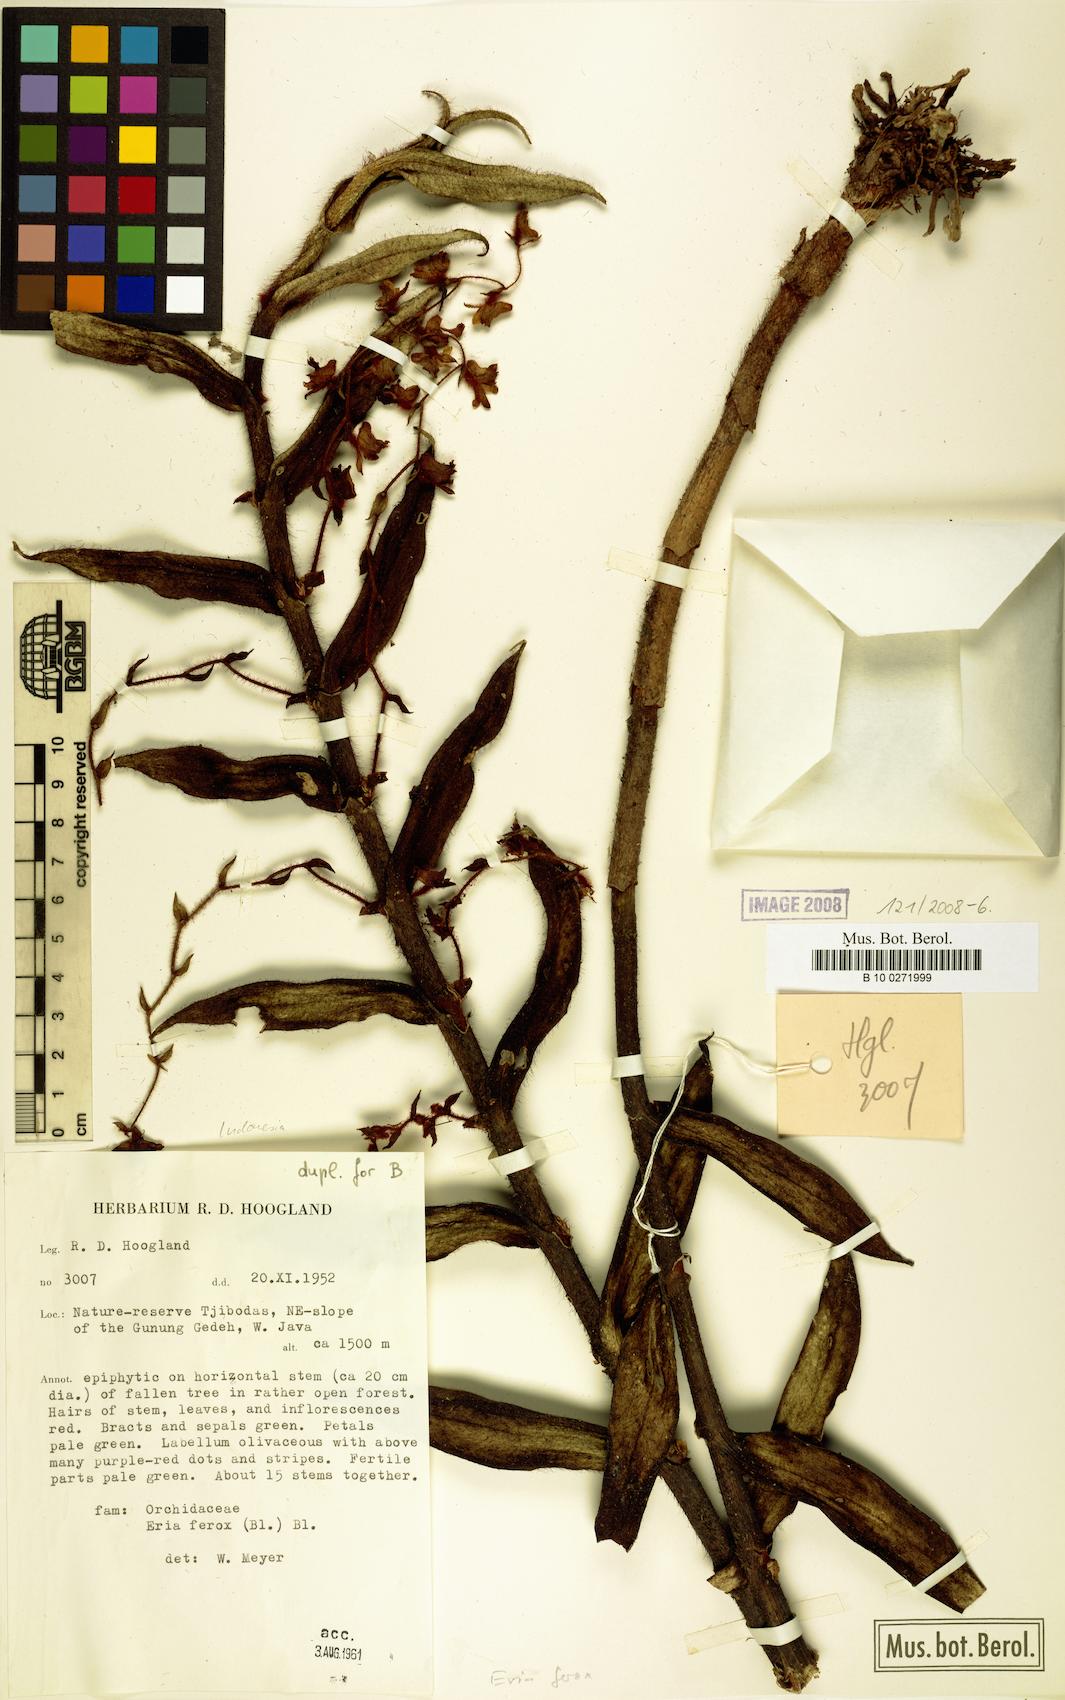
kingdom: Plantae
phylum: Tracheophyta
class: Liliopsida
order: Asparagales
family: Orchidaceae
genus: Trichotosia
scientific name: Trichotosia ferox
